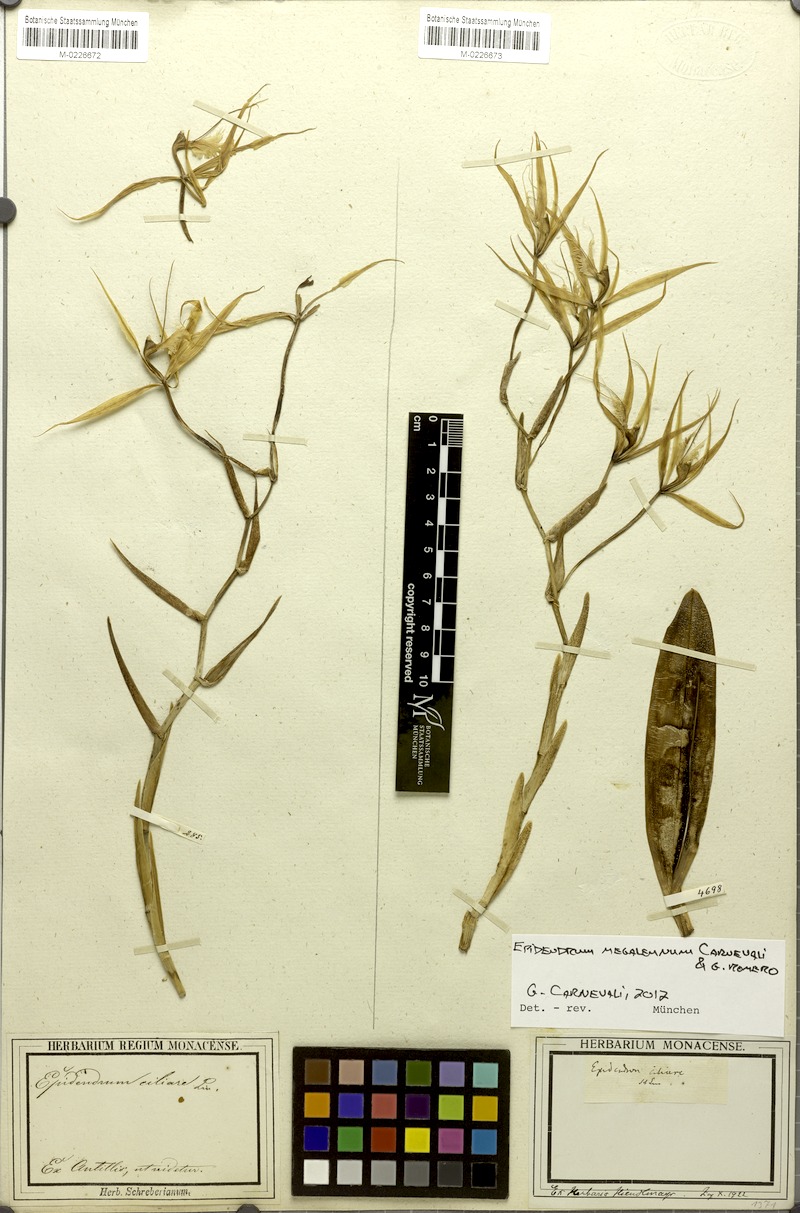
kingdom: Plantae
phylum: Tracheophyta
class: Liliopsida
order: Asparagales
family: Orchidaceae
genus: Epidendrum
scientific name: Epidendrum megalemmum
